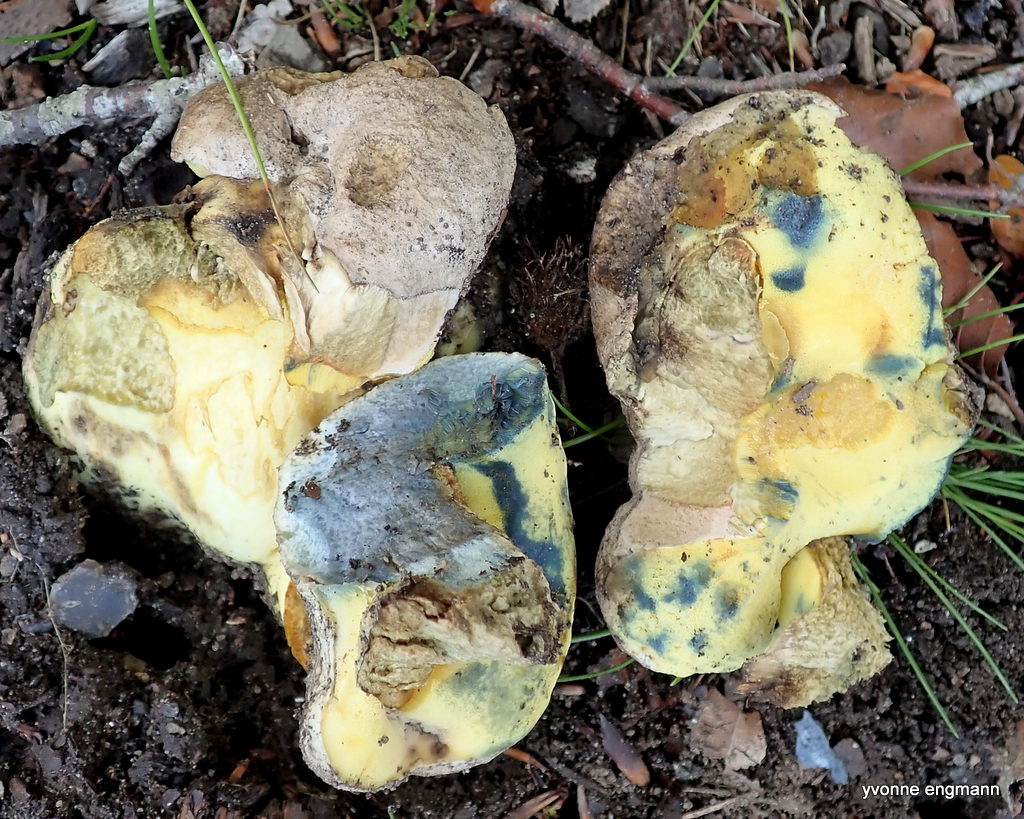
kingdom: Fungi
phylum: Basidiomycota
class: Agaricomycetes
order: Boletales
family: Boletaceae
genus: Caloboletus
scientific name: Caloboletus radicans
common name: rod-rørhat
